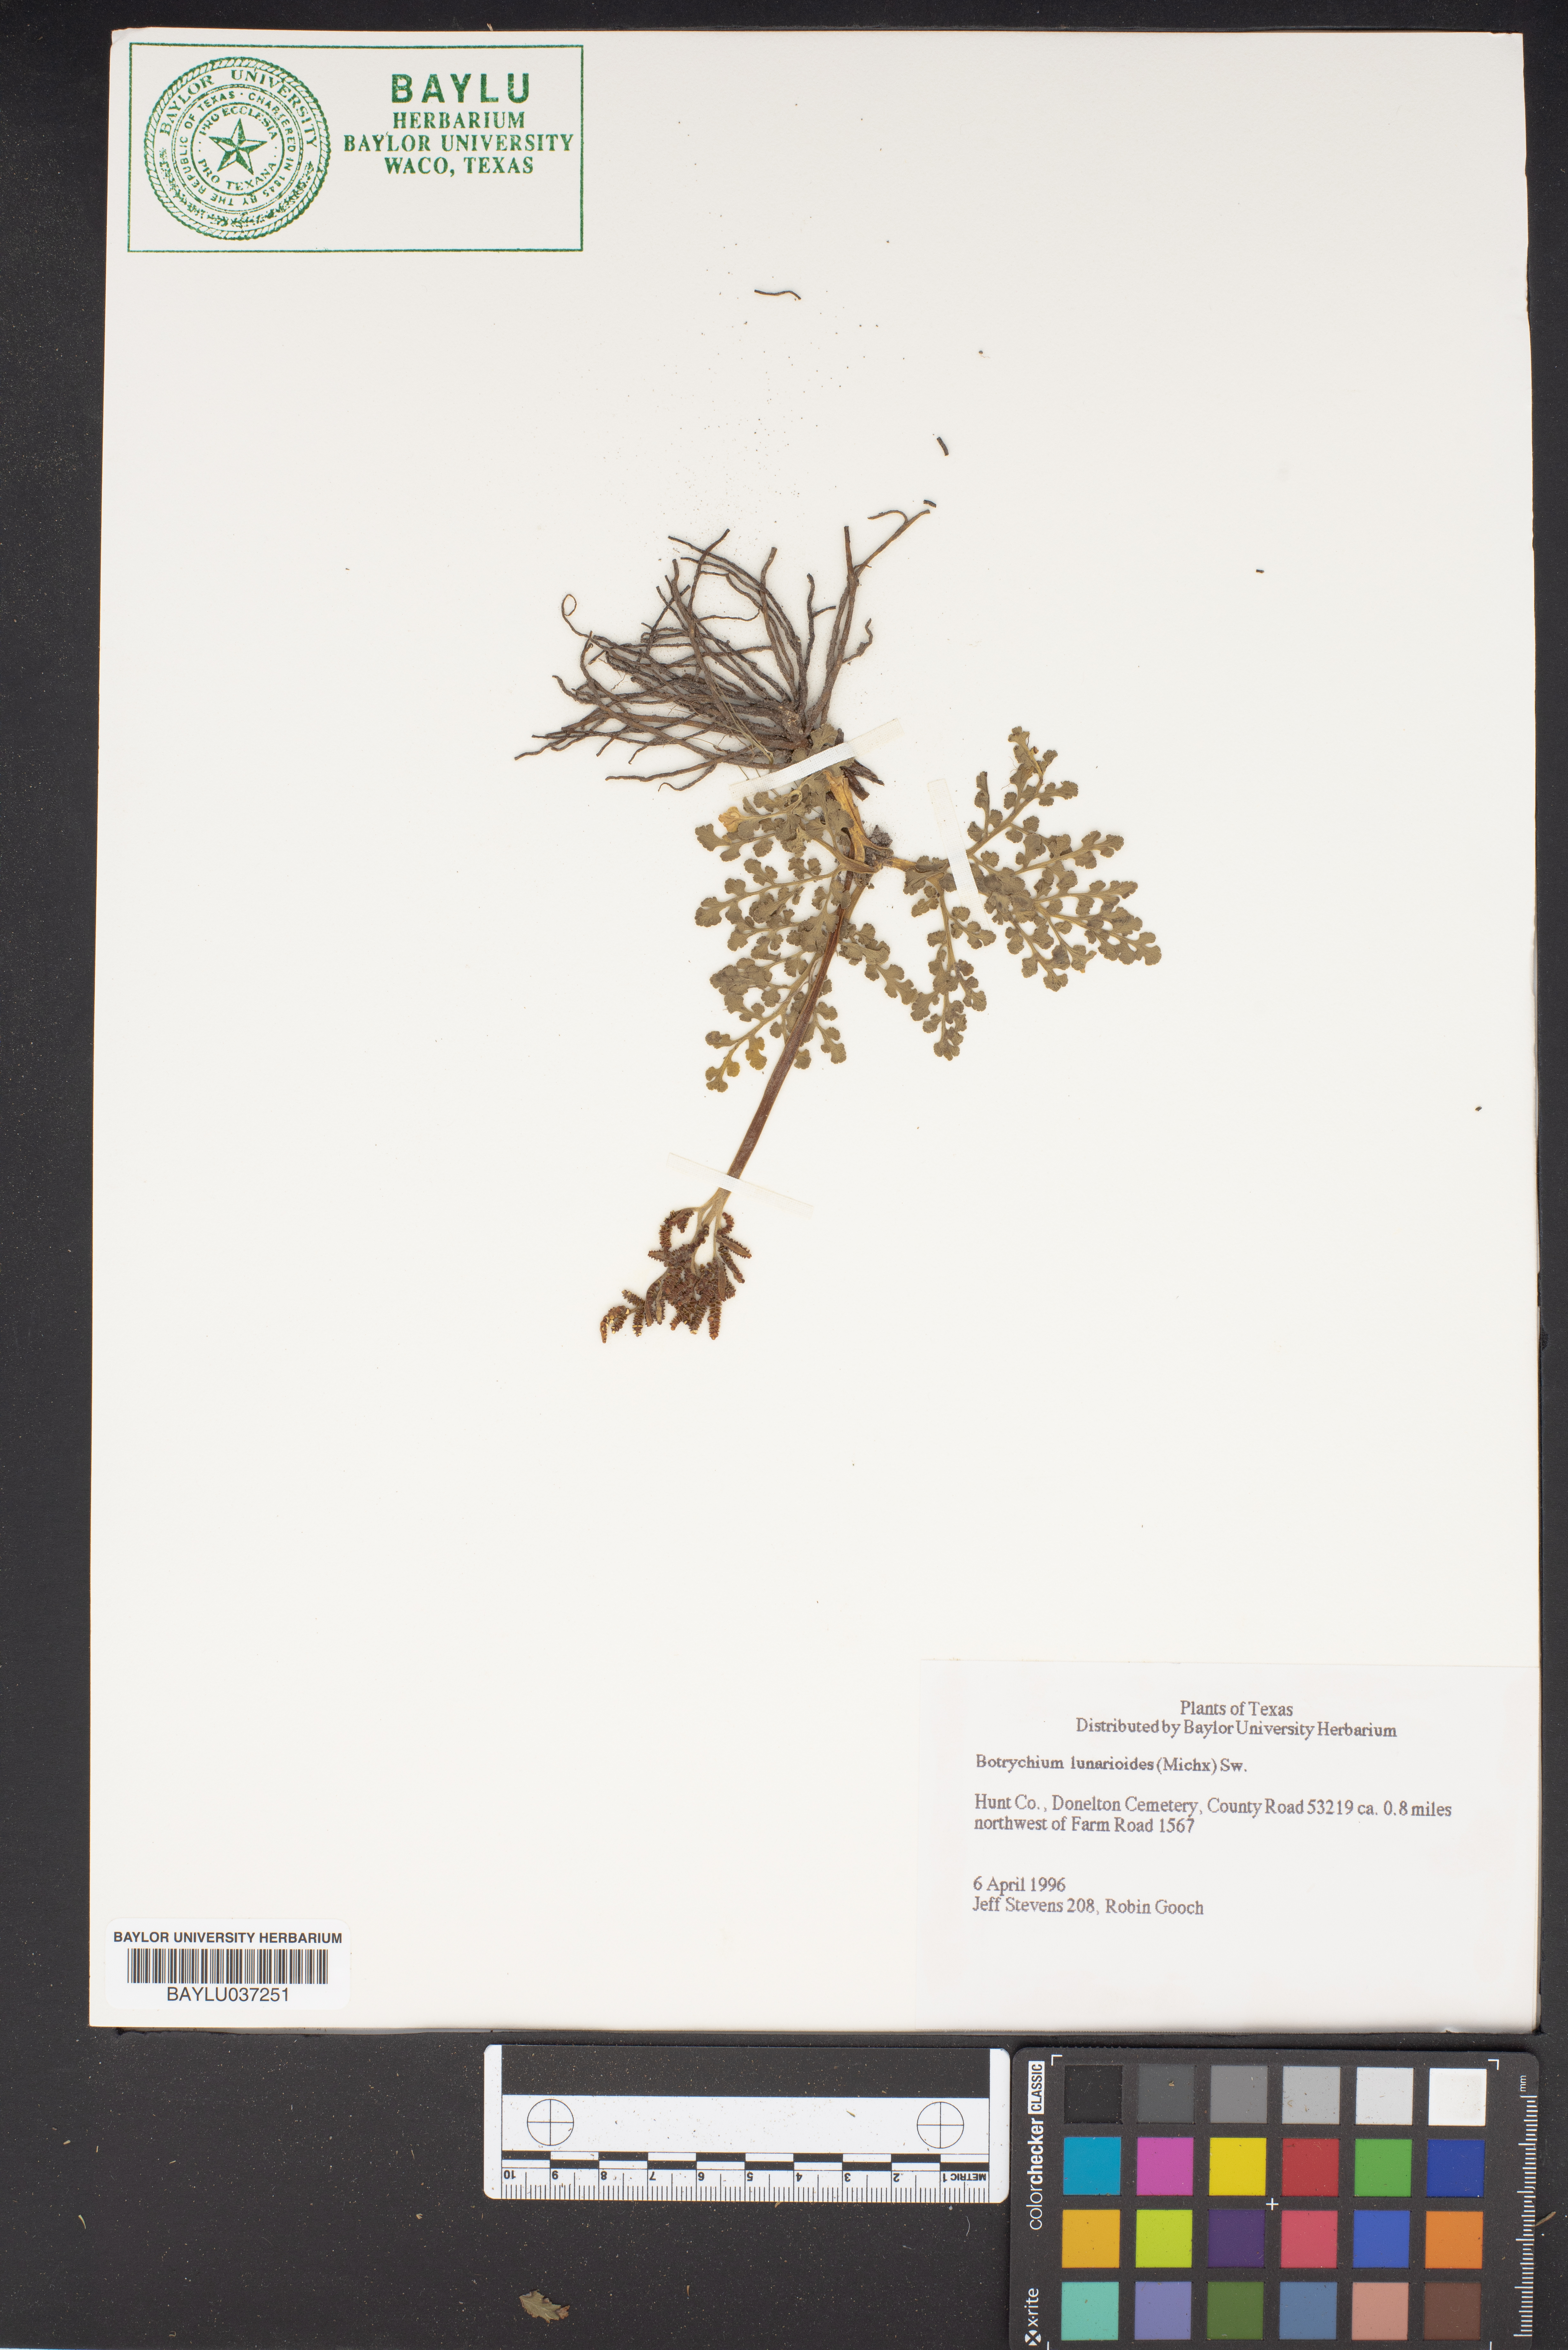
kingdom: Plantae
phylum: Tracheophyta
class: Polypodiopsida
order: Ophioglossales
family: Ophioglossaceae
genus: Sceptridium
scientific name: Sceptridium lunarioides
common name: Prostrate grapefern
